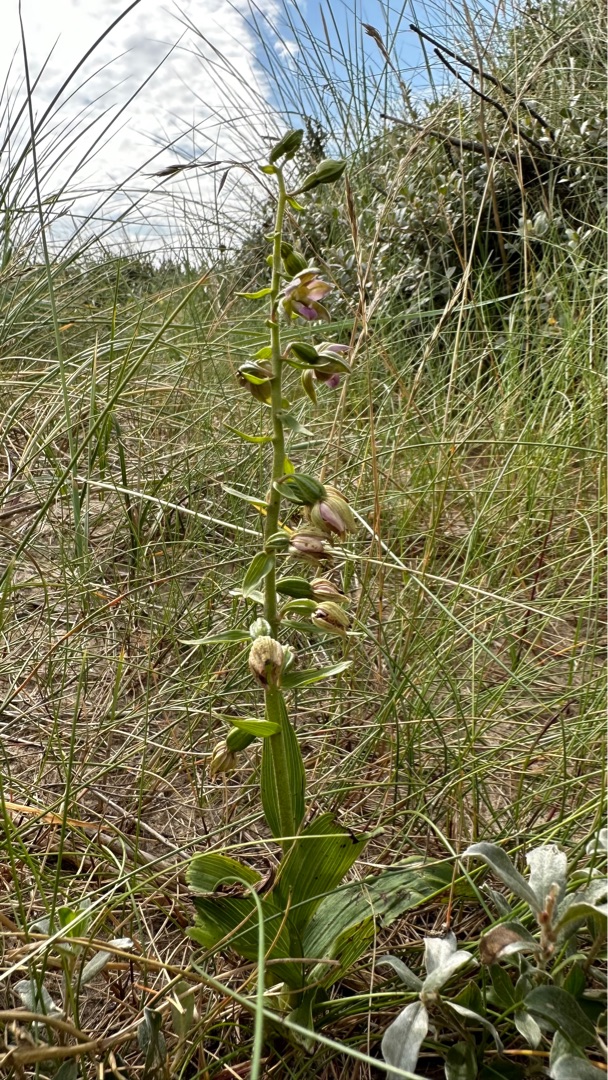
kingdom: Plantae
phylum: Tracheophyta
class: Liliopsida
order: Asparagales
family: Orchidaceae
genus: Epipactis
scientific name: Epipactis helleborine
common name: Skagen-hullæbe
